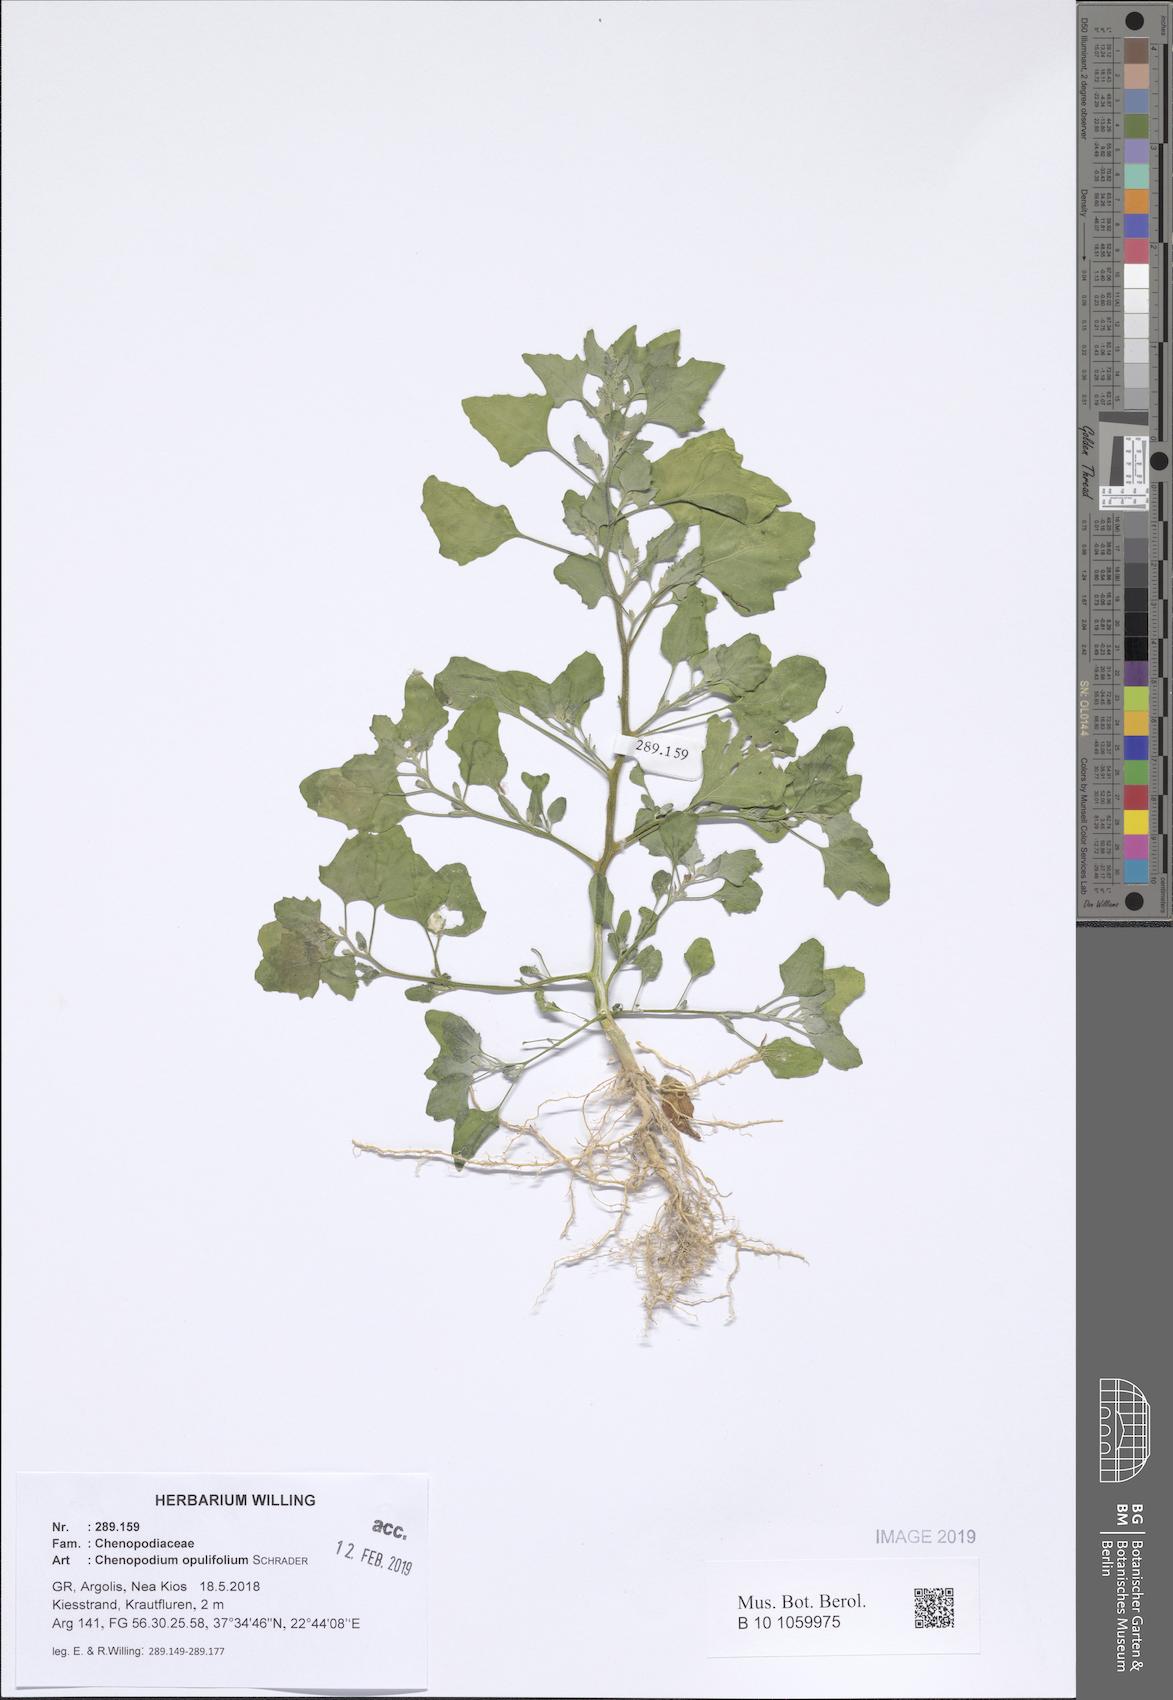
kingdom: Plantae
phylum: Tracheophyta
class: Magnoliopsida
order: Caryophyllales
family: Amaranthaceae
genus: Chenopodium
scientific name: Chenopodium opulifolium
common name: Grey goosefoot
